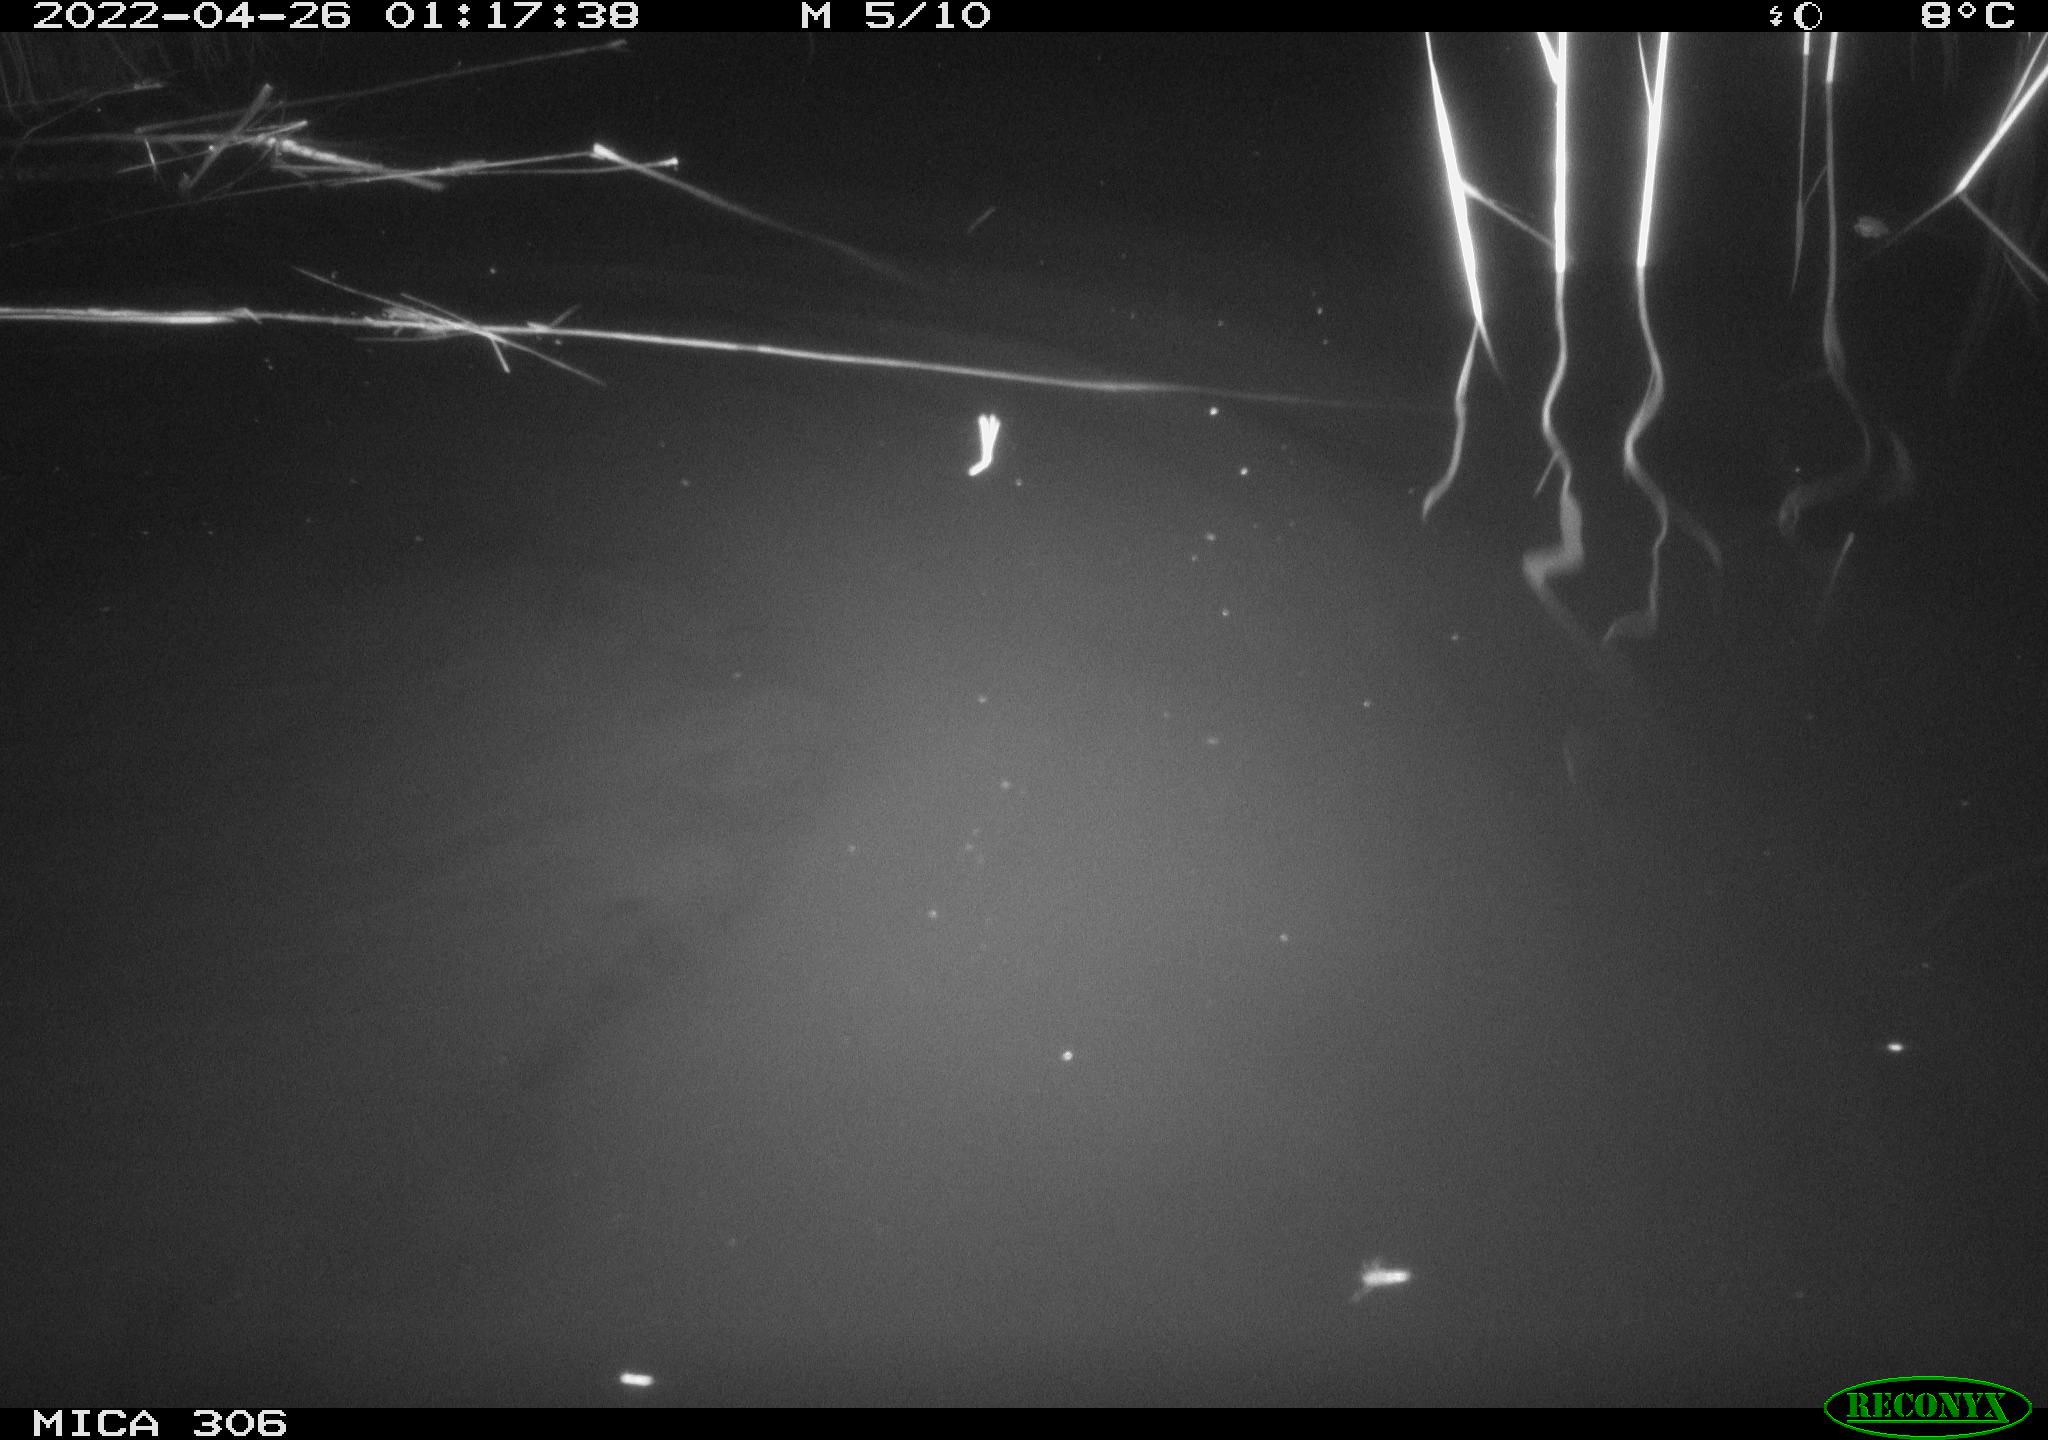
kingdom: Animalia
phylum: Chordata
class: Mammalia
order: Rodentia
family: Muridae
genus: Rattus
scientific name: Rattus norvegicus
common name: Brown rat
